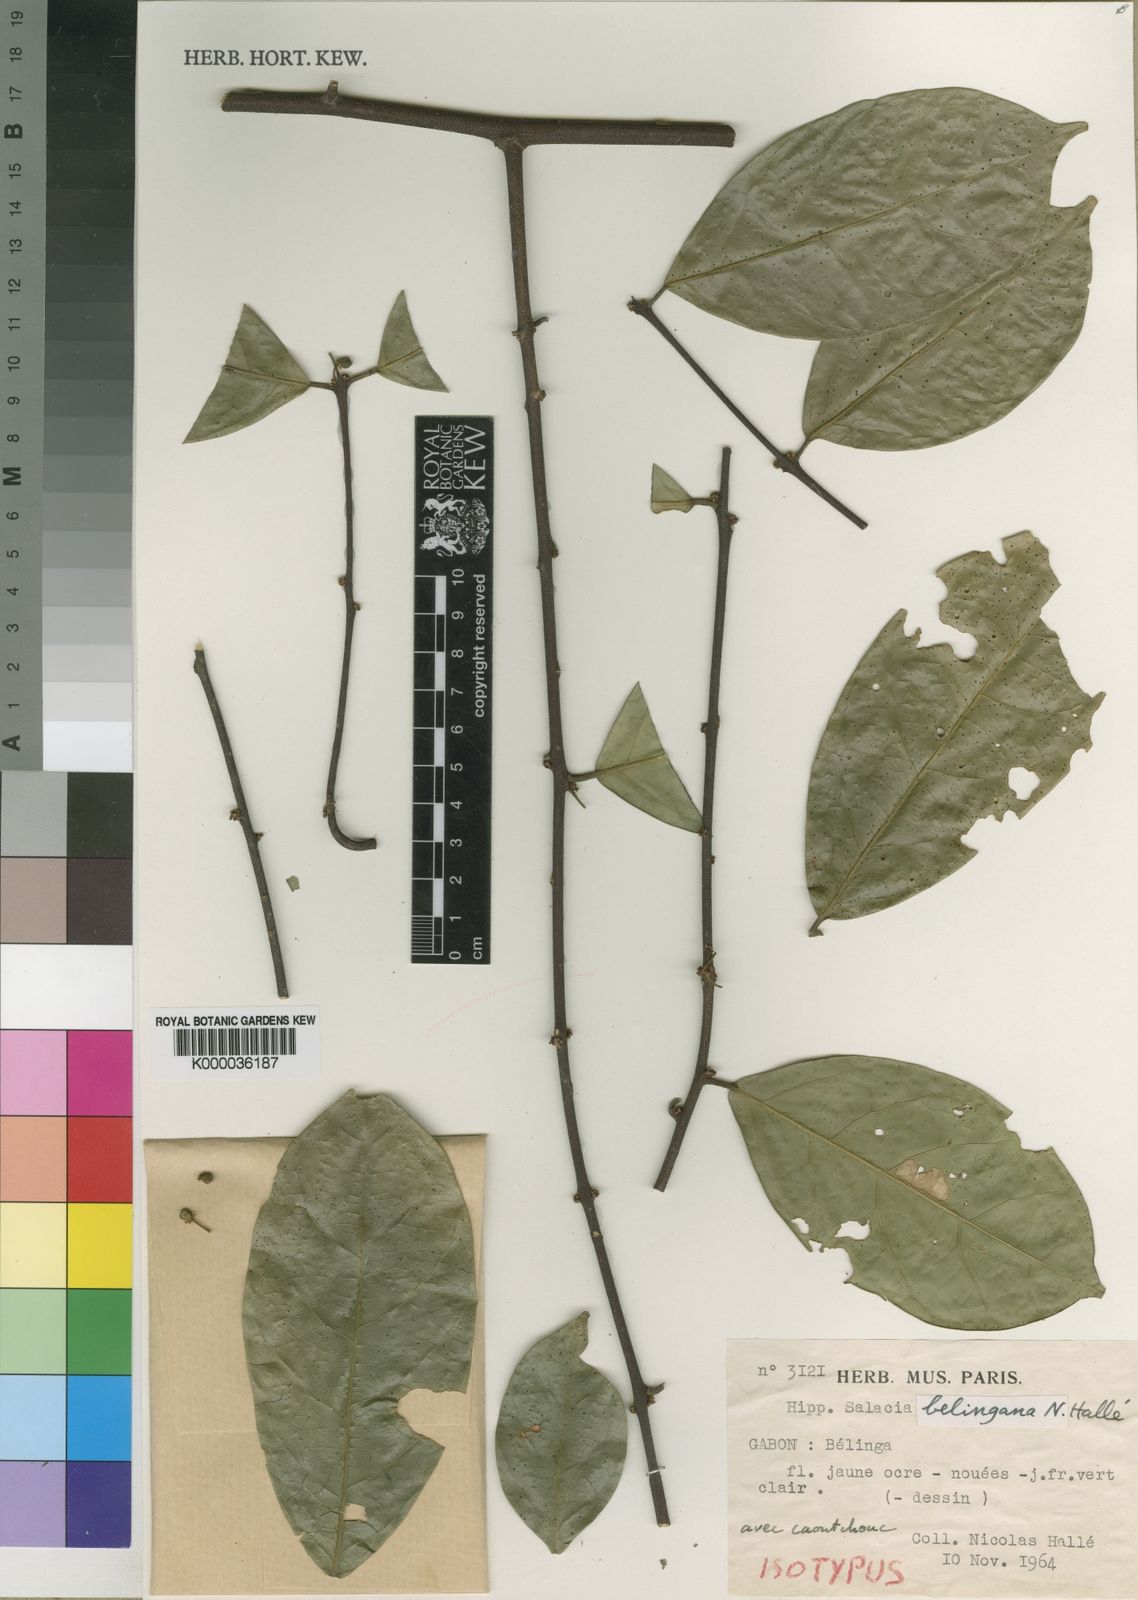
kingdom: Plantae
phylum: Tracheophyta
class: Magnoliopsida
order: Celastrales
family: Celastraceae
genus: Salacia
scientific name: Salacia
